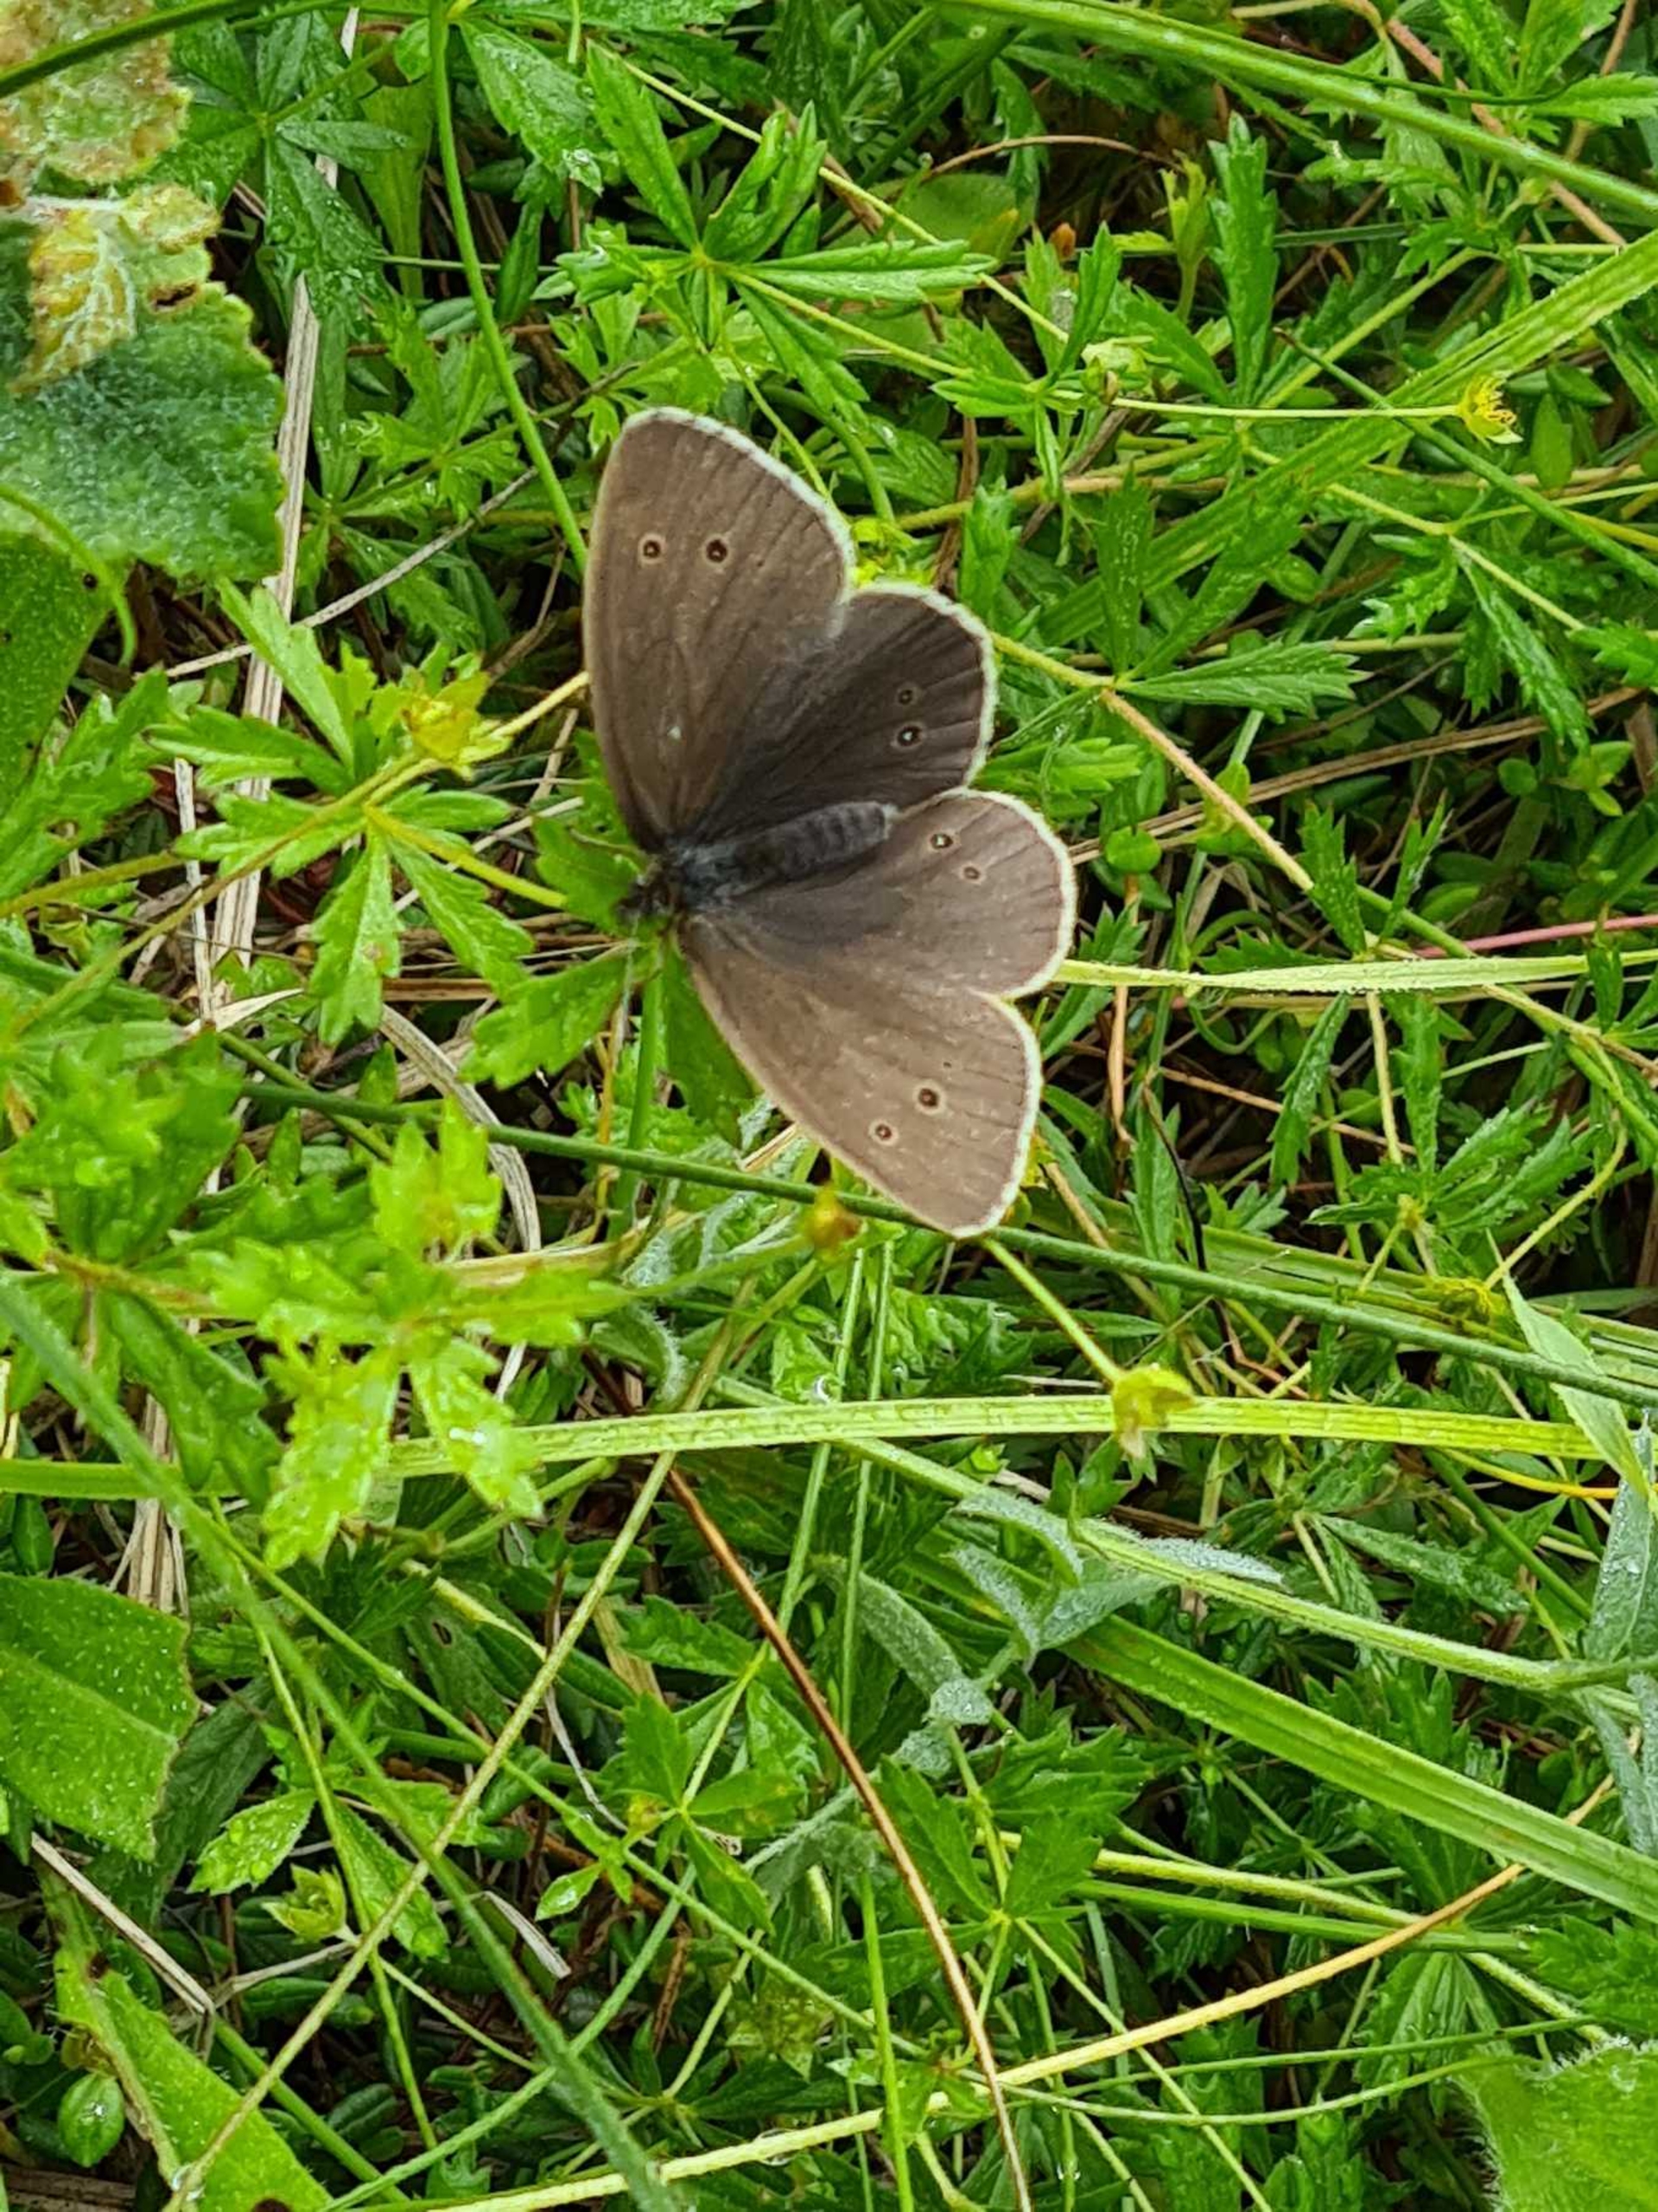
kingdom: Animalia
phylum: Arthropoda
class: Insecta
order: Lepidoptera
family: Nymphalidae
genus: Aphantopus
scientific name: Aphantopus hyperantus
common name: Engrandøje
